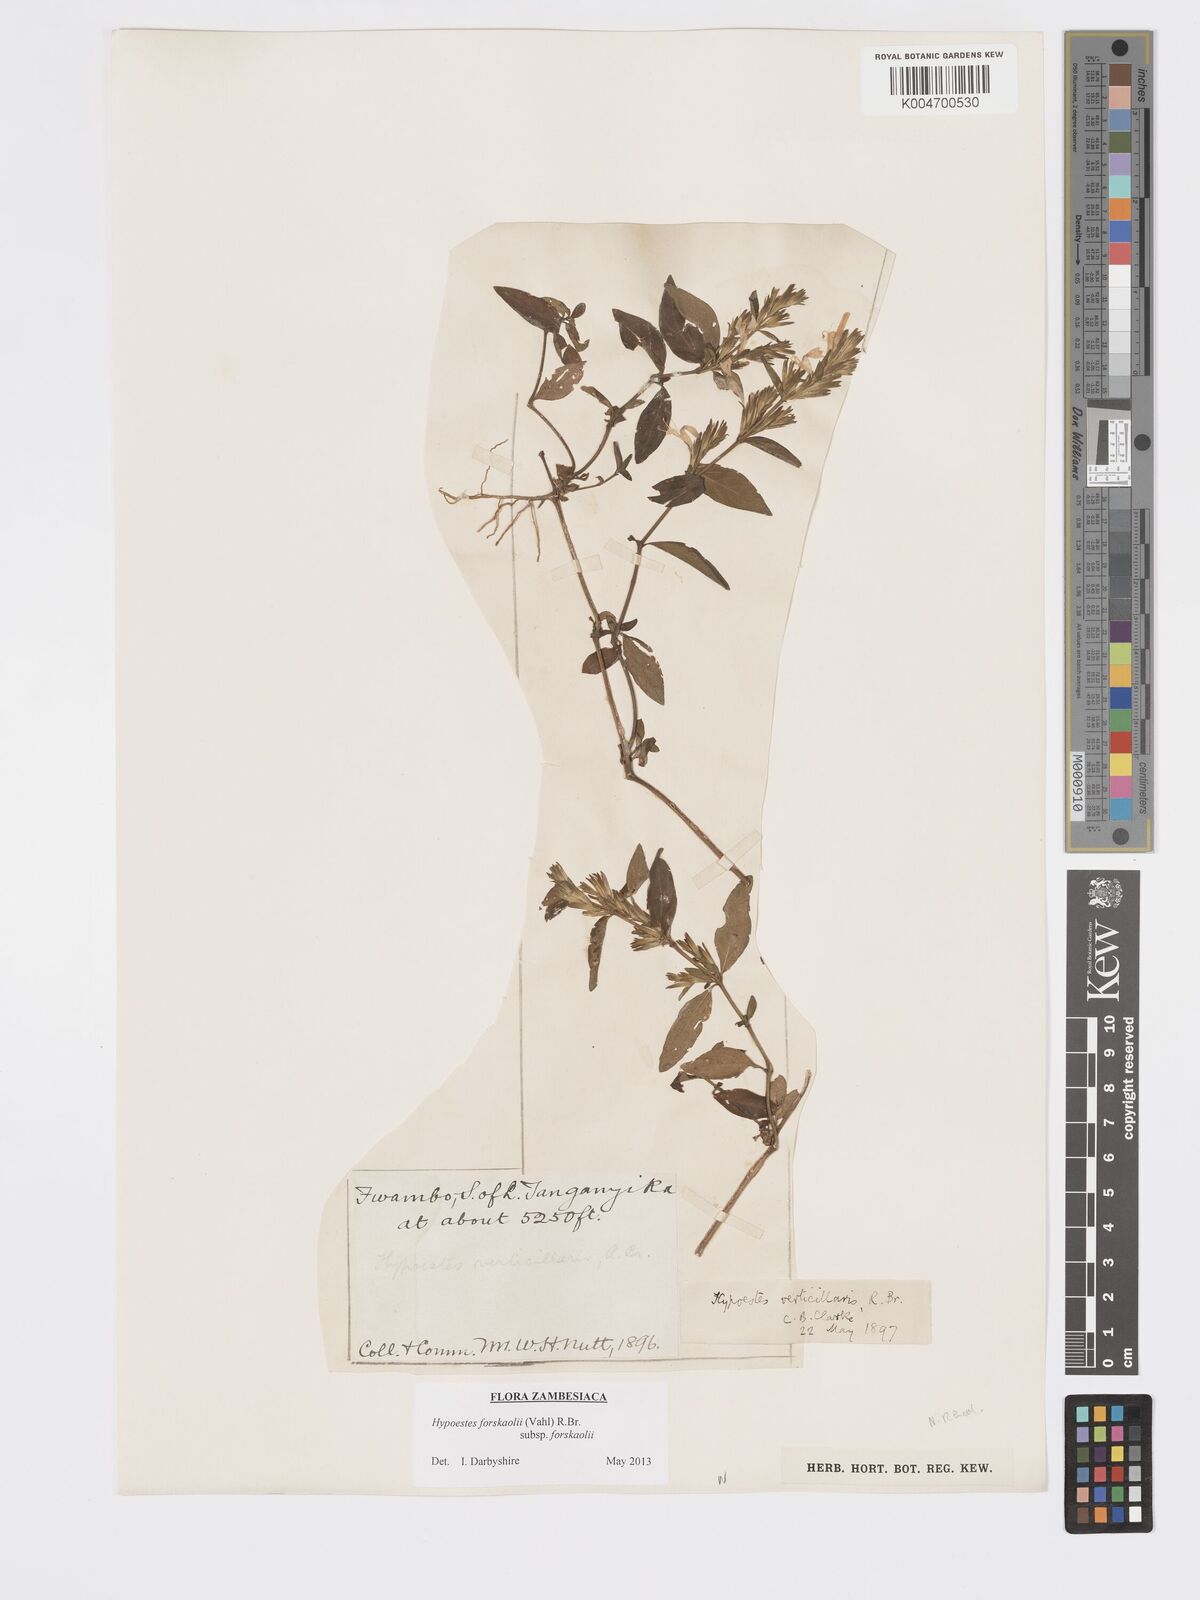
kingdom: Plantae
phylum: Tracheophyta
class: Magnoliopsida
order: Lamiales
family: Acanthaceae
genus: Hypoestes
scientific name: Hypoestes forskaolii
